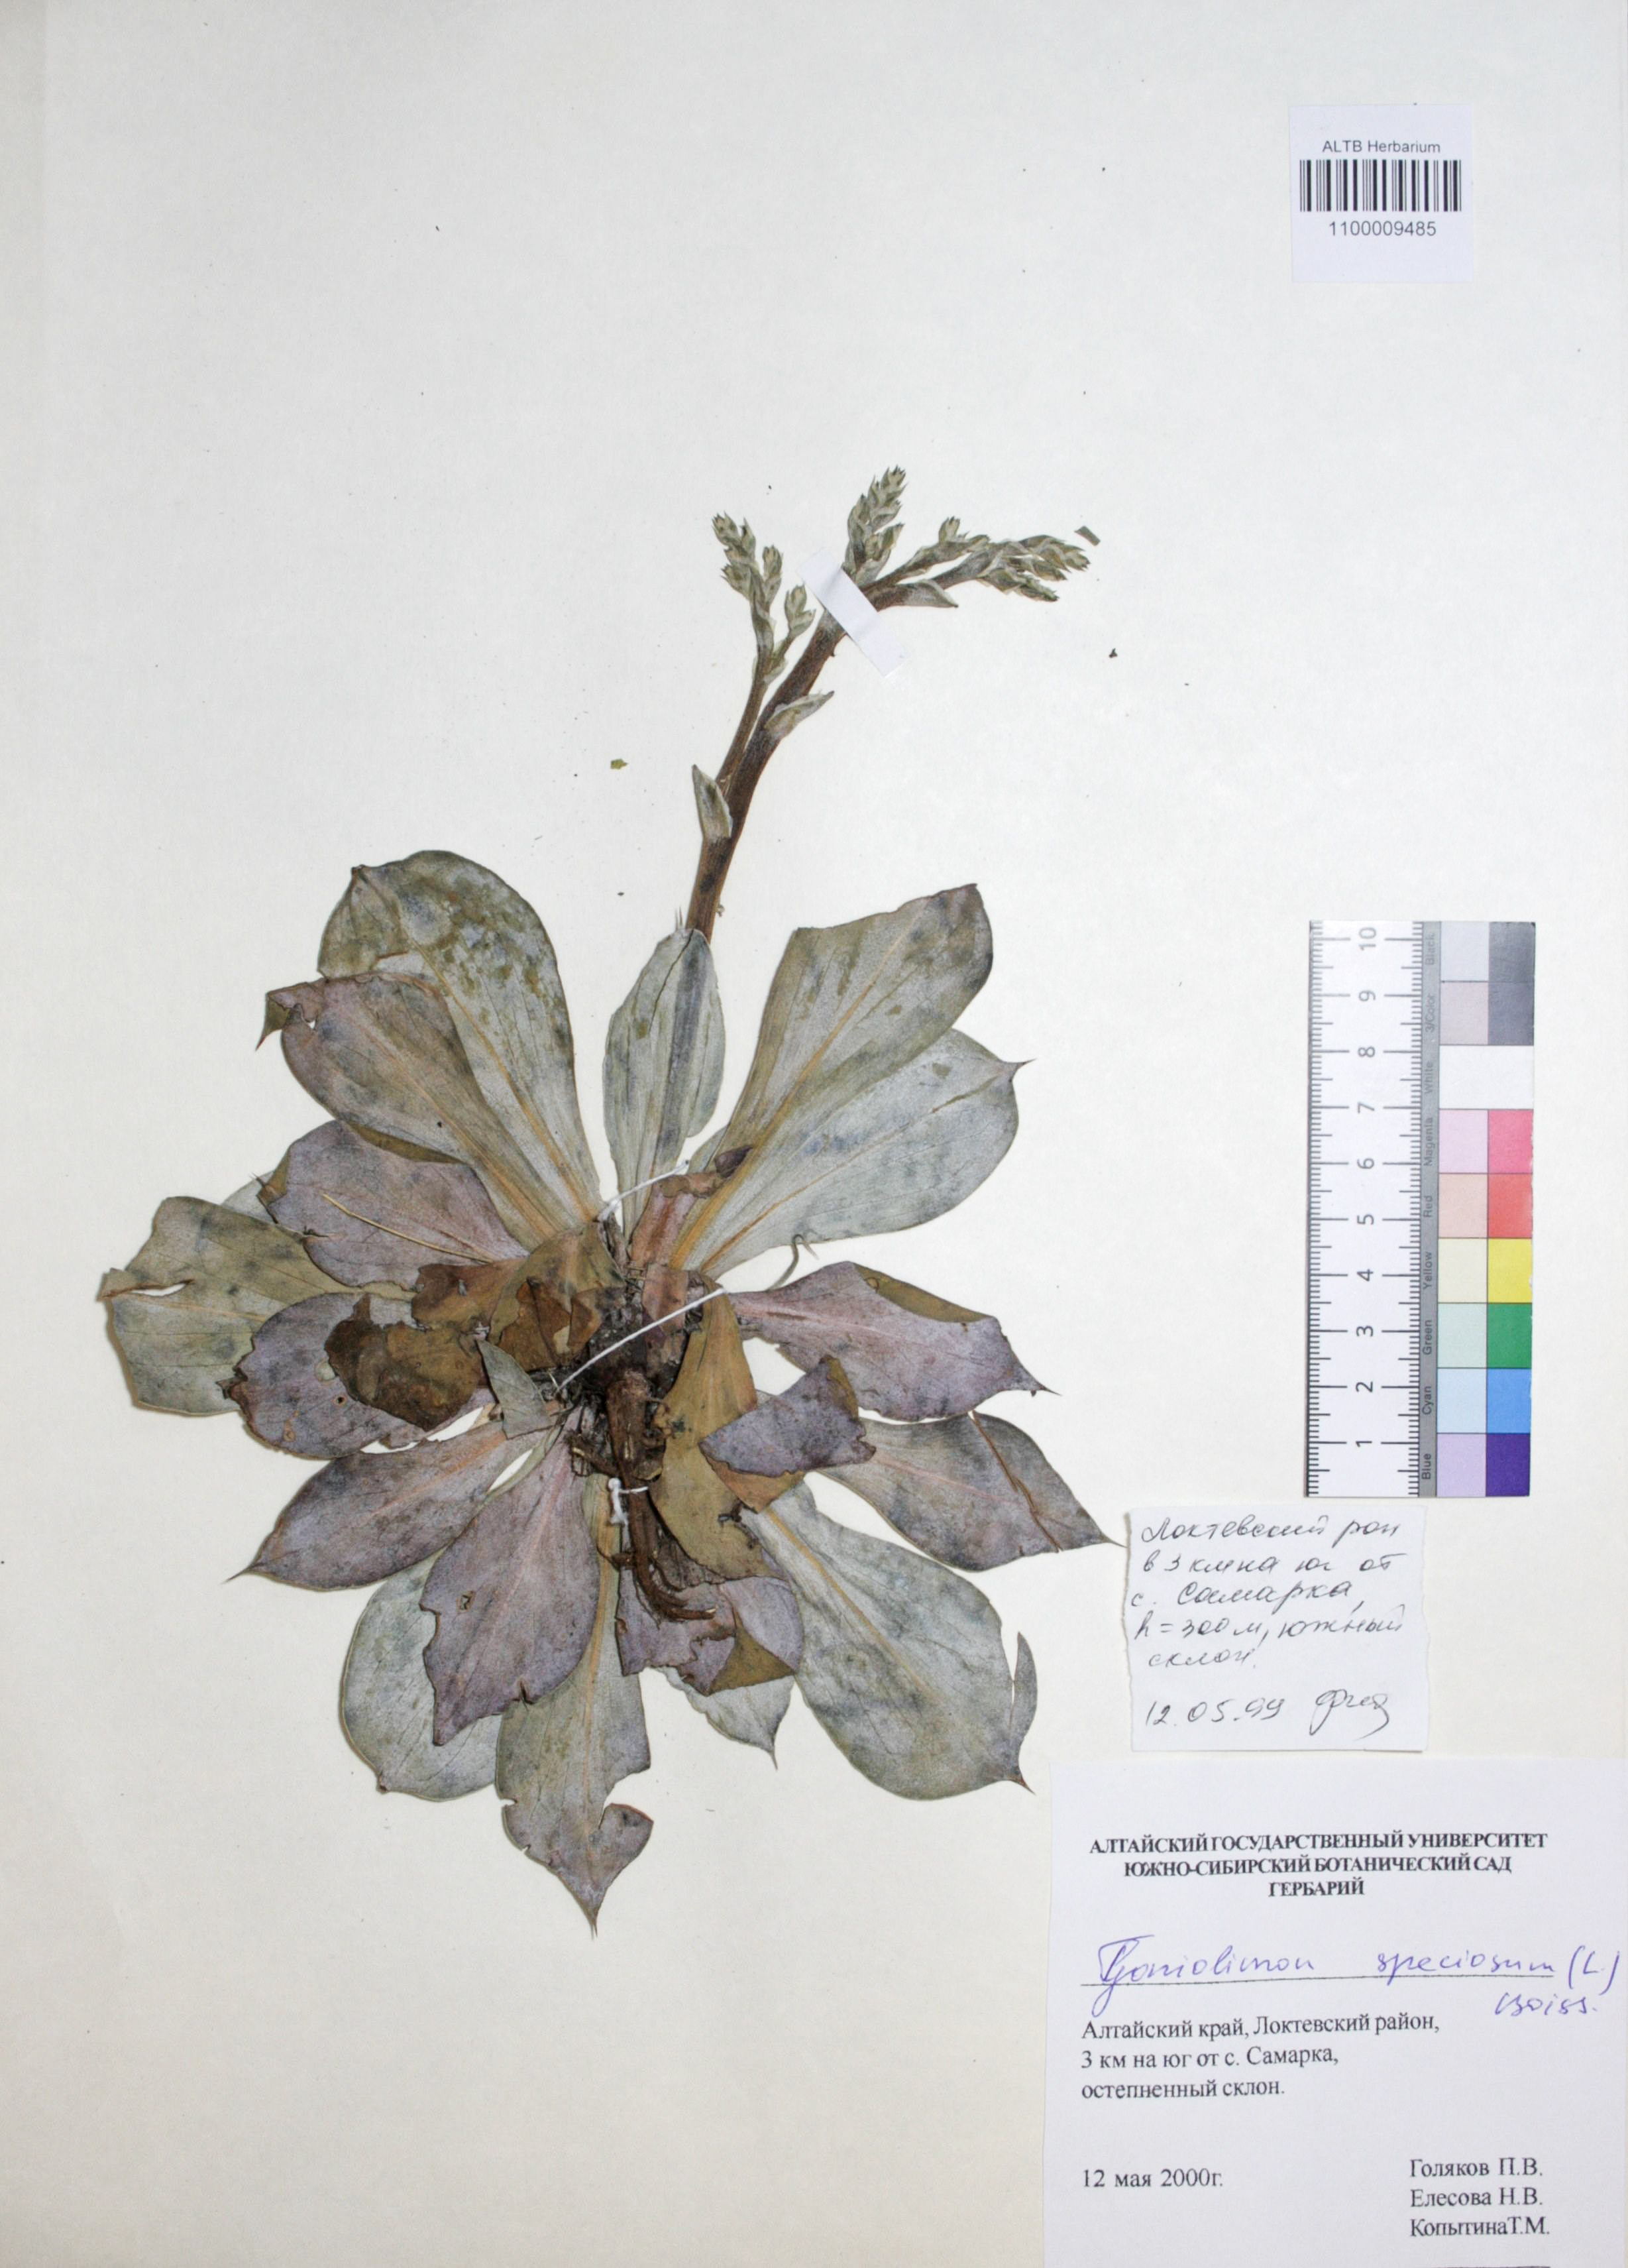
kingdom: Plantae
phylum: Tracheophyta
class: Magnoliopsida
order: Caryophyllales
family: Plumbaginaceae
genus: Goniolimon
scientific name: Goniolimon speciosum
